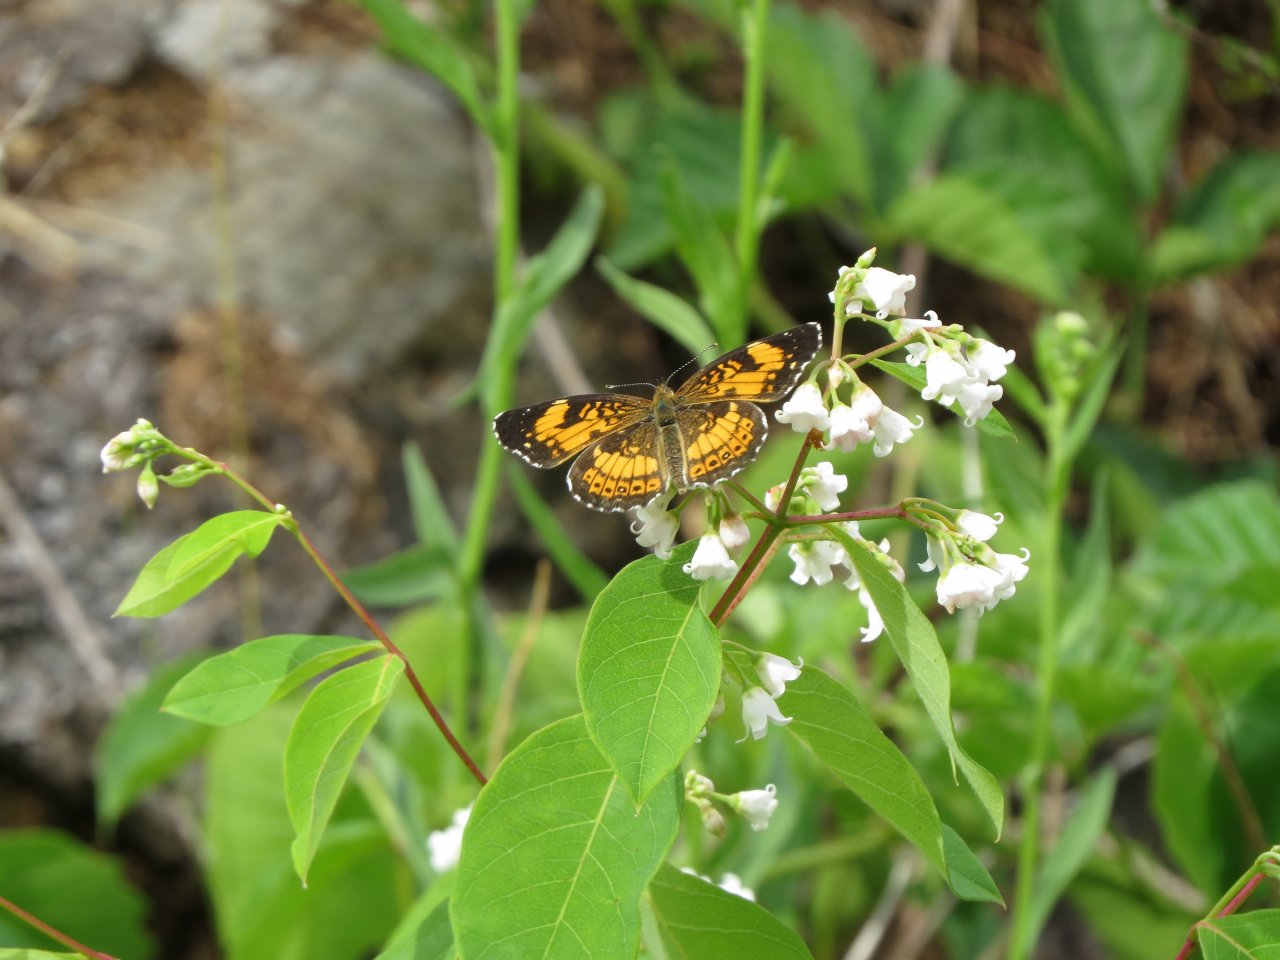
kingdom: Animalia
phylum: Arthropoda
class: Insecta
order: Lepidoptera
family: Nymphalidae
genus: Chlosyne
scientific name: Chlosyne nycteis
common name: Silvery Checkerspot
